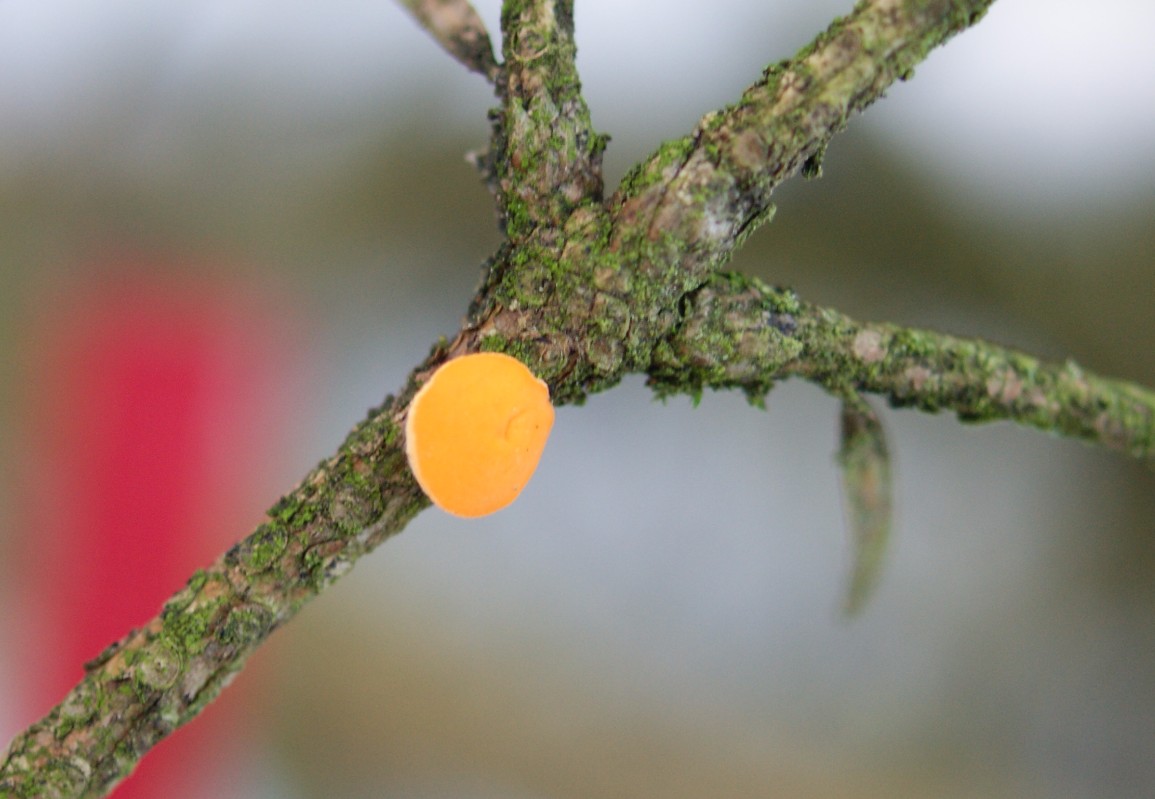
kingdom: Fungi
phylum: Ascomycota
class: Pezizomycetes
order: Pezizales
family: Sarcoscyphaceae
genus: Pithya
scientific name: Pithya vulgaris
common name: stor dukatbæger
